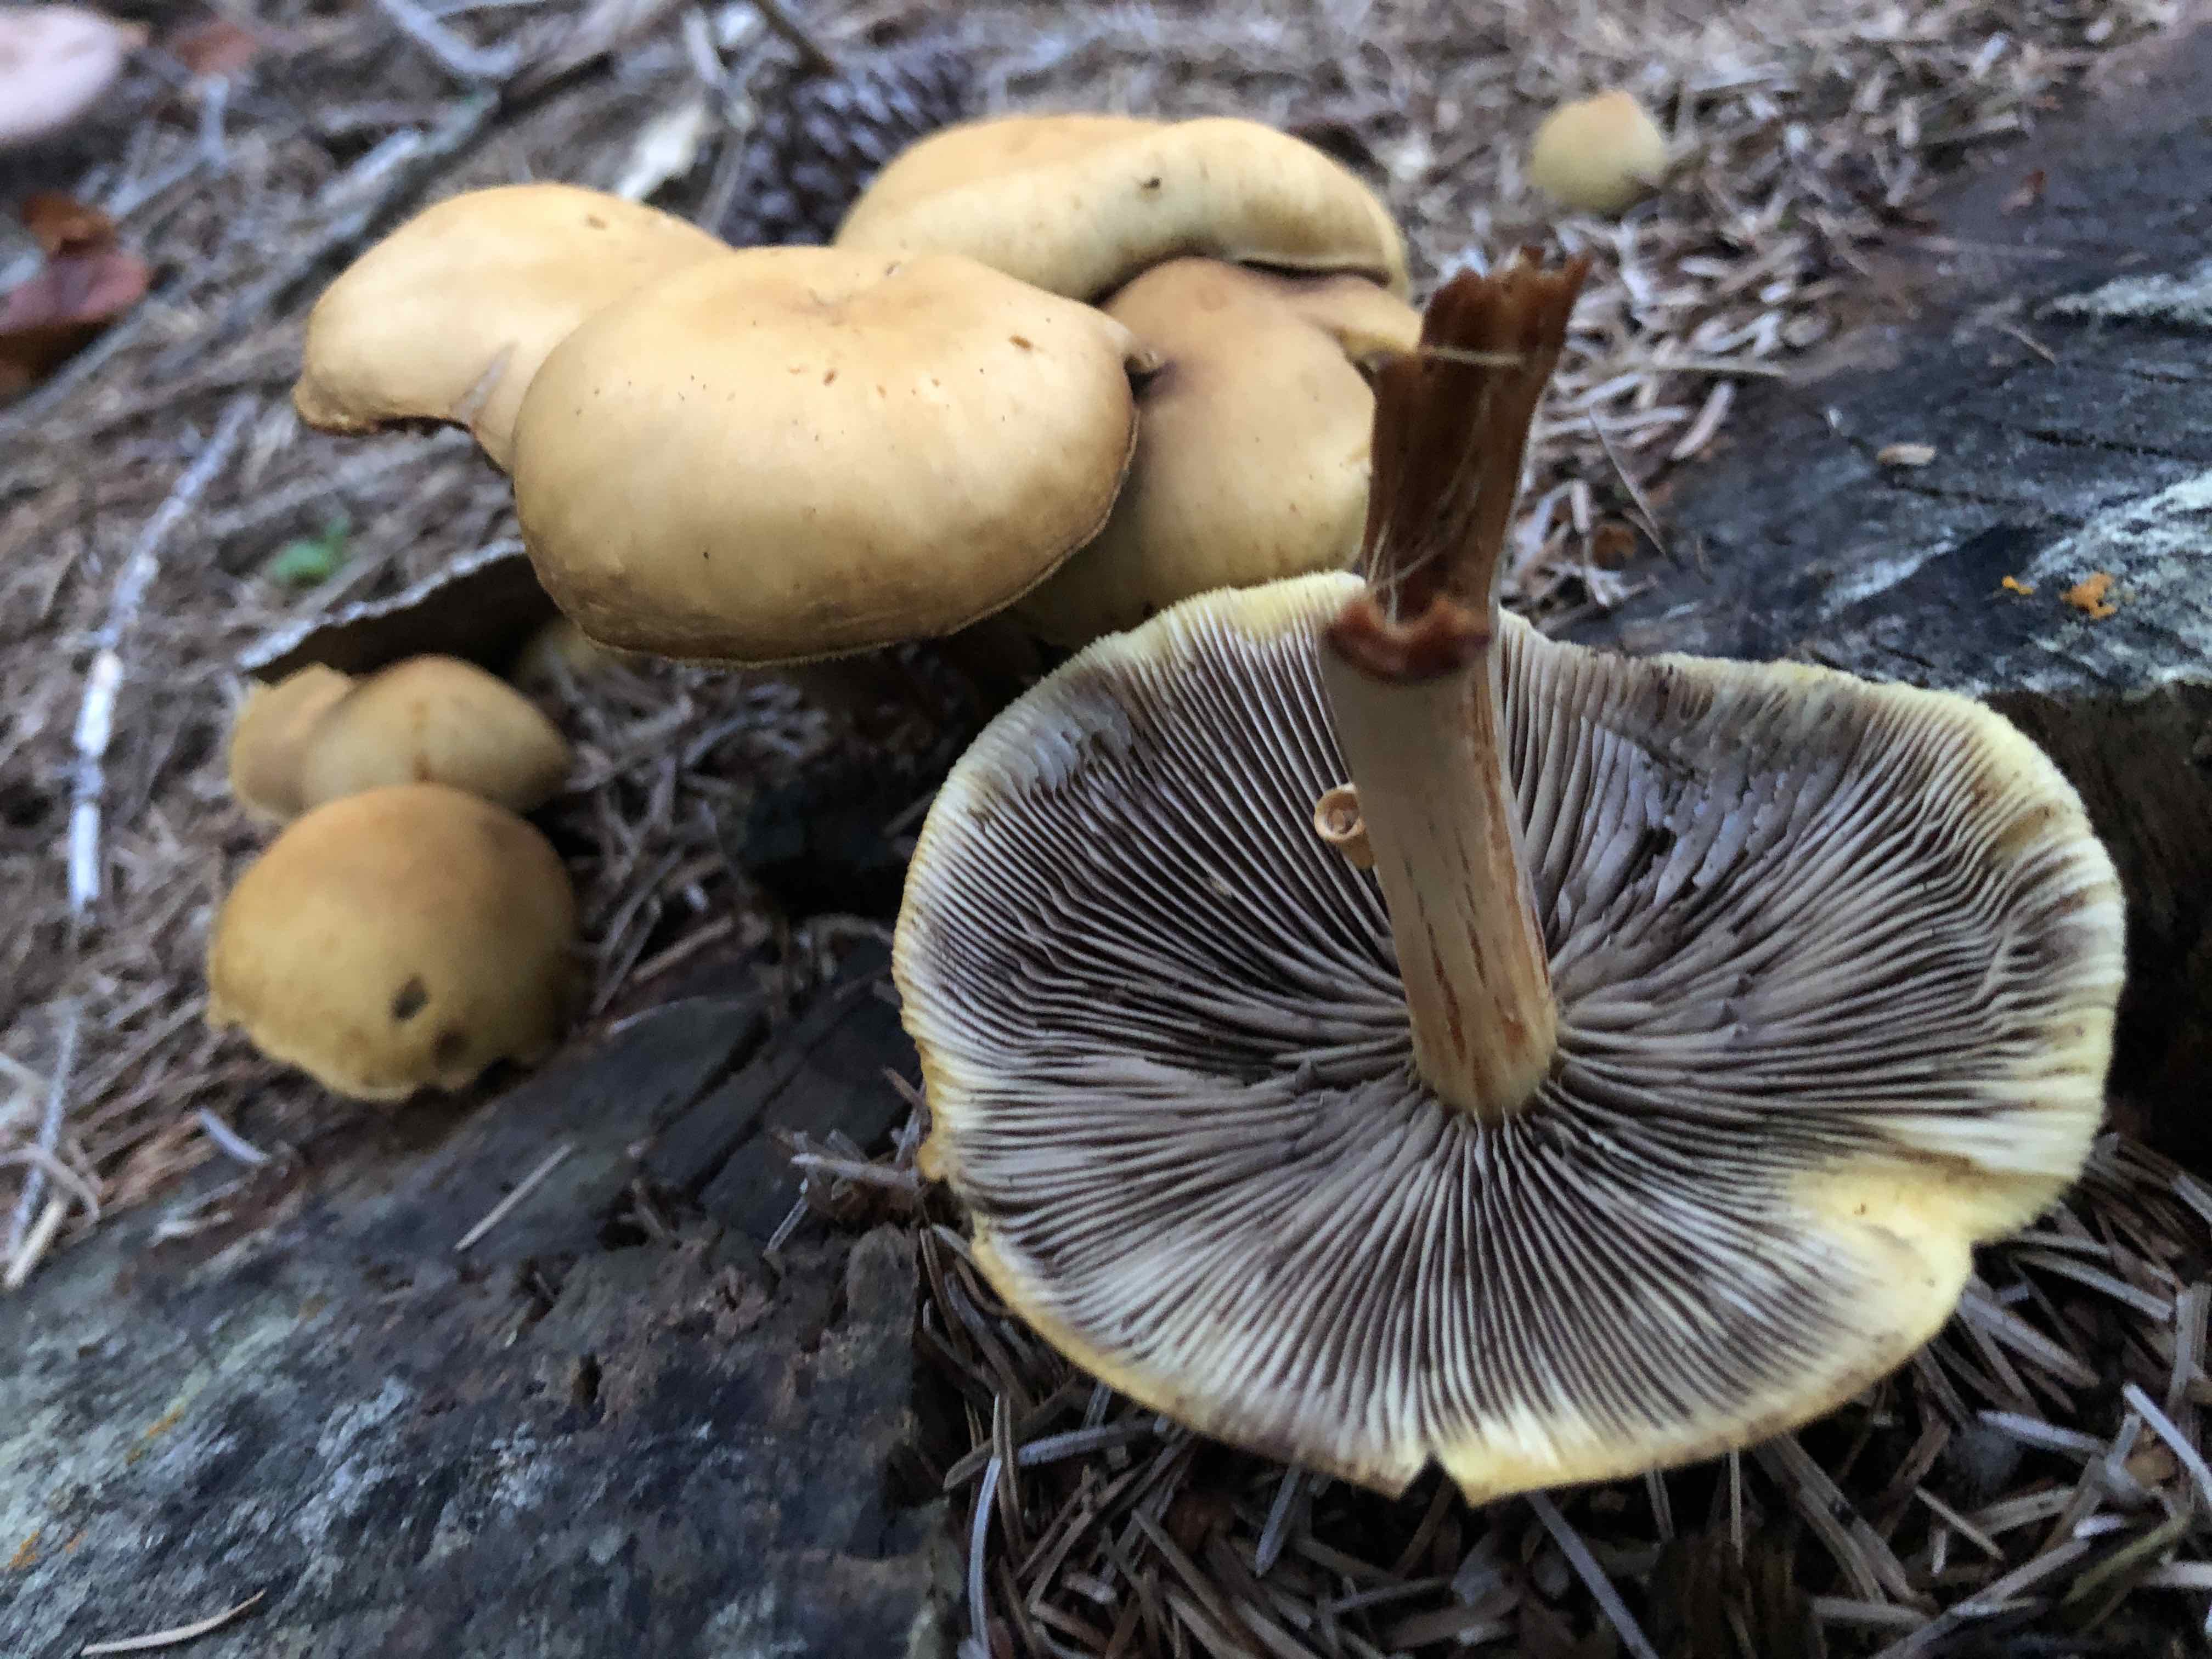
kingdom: Fungi
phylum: Basidiomycota
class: Agaricomycetes
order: Agaricales
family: Strophariaceae
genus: Hypholoma
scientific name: Hypholoma capnoides
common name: gran-svovlhat
